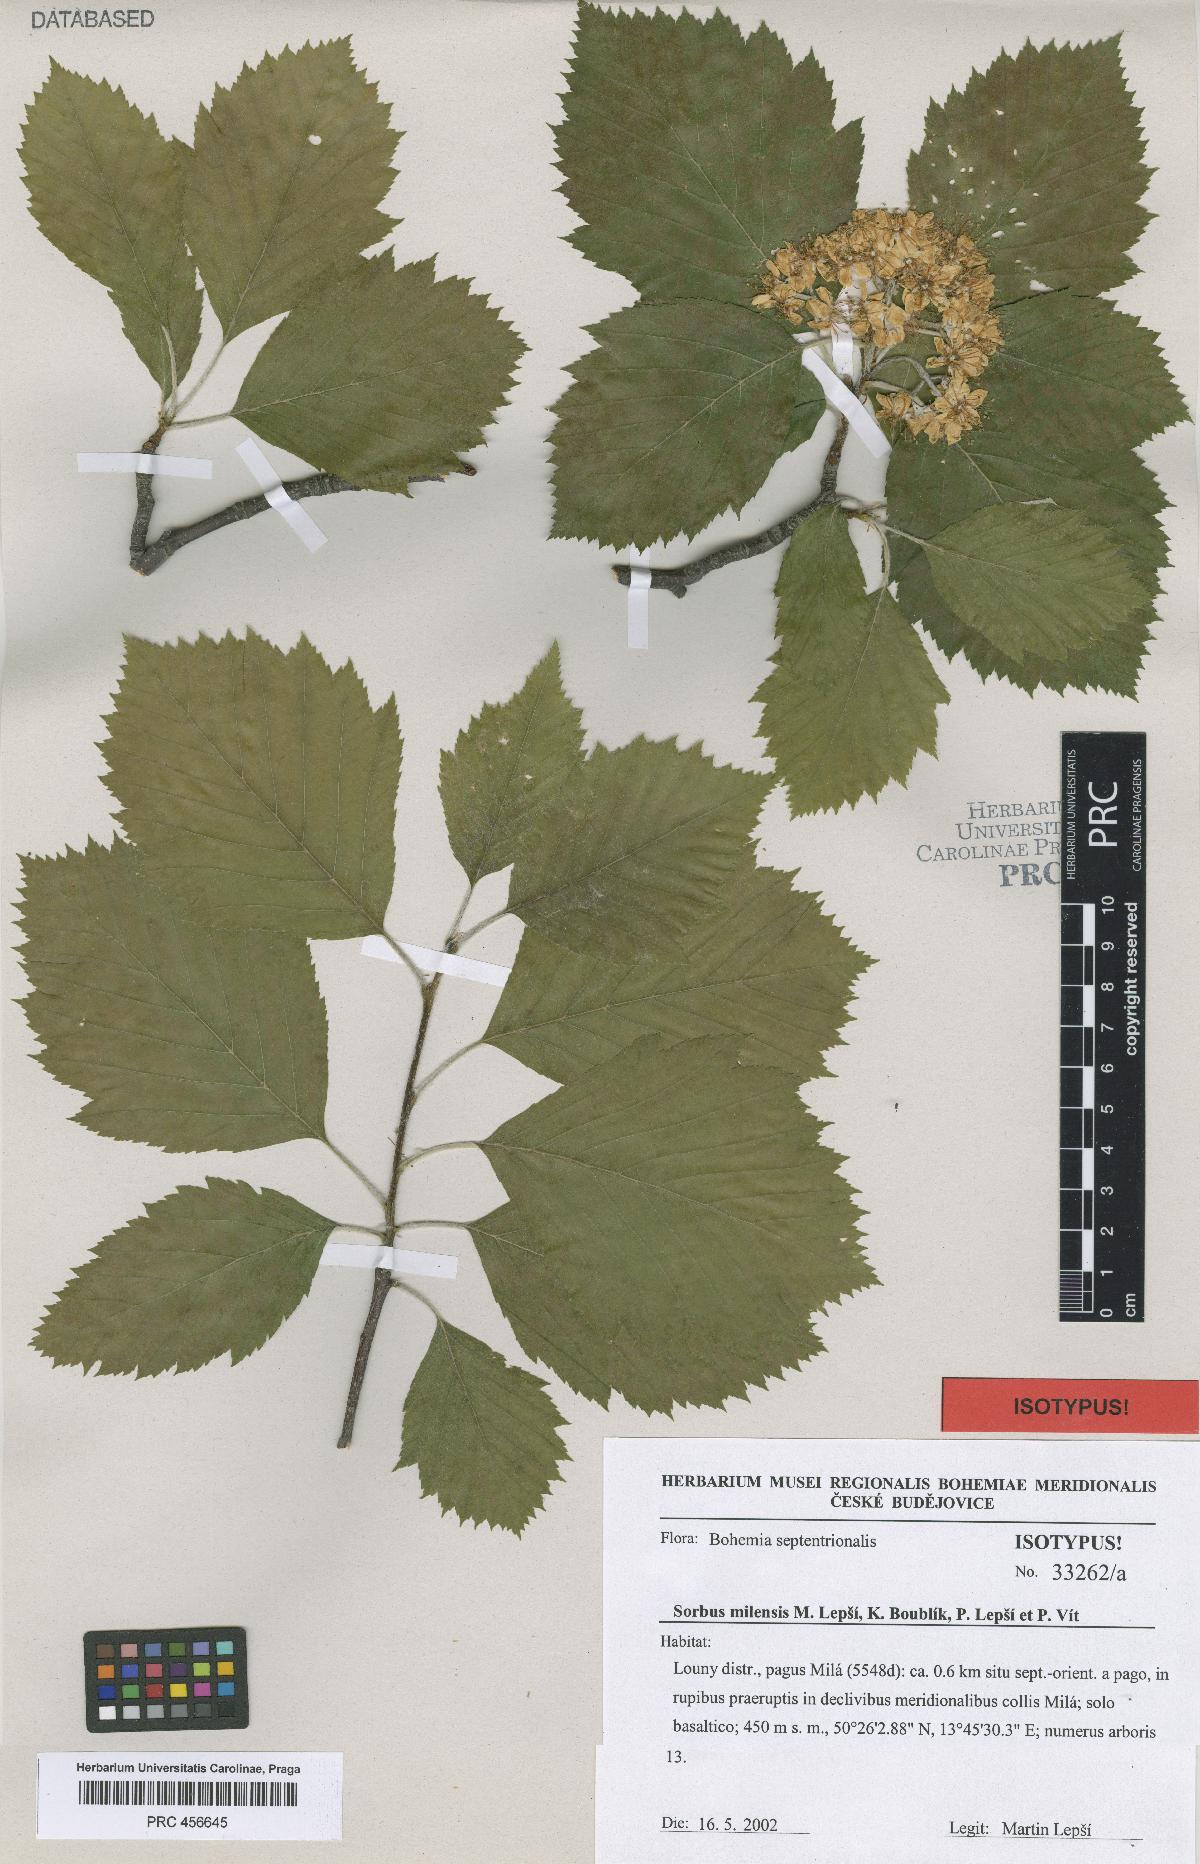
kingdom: Plantae
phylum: Tracheophyta
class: Magnoliopsida
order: Rosales
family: Rosaceae
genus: Karpatiosorbus
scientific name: Karpatiosorbus milensis
